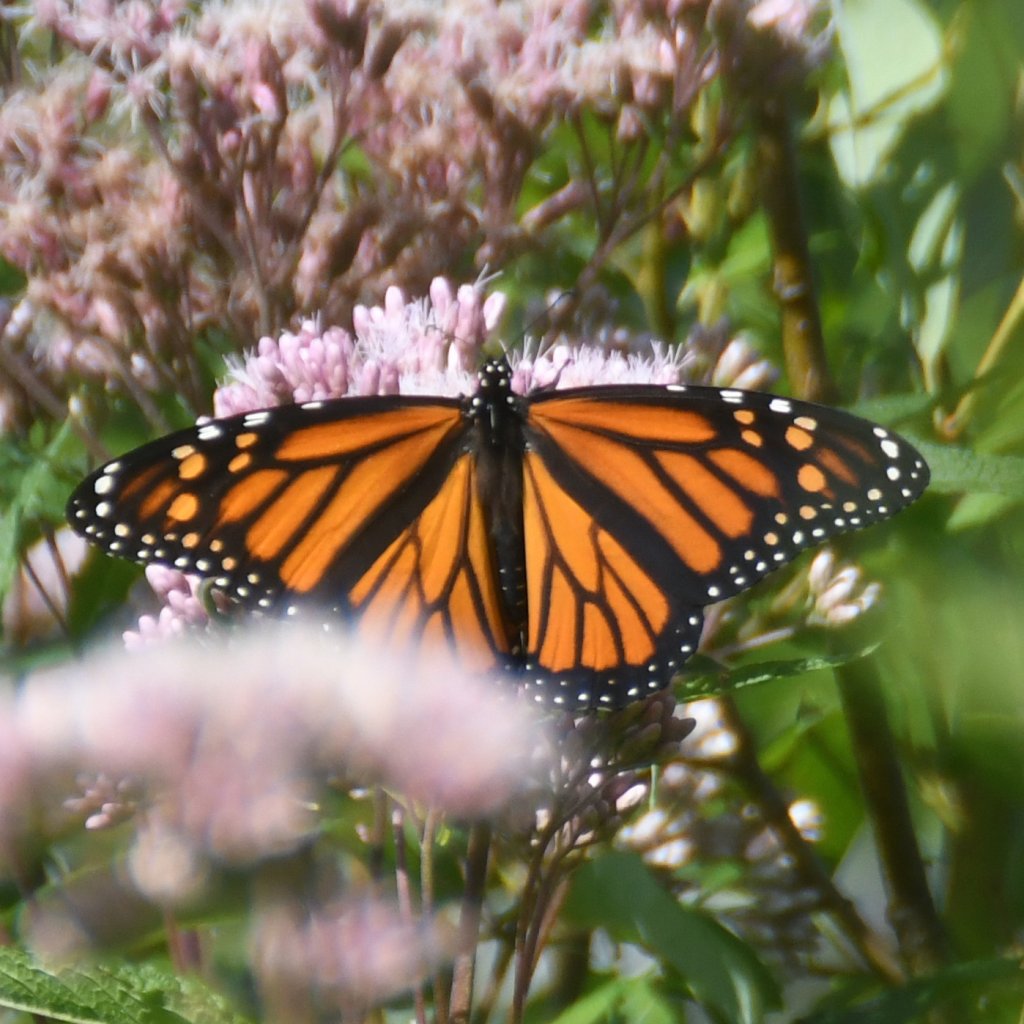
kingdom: Animalia
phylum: Arthropoda
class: Insecta
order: Lepidoptera
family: Nymphalidae
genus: Danaus
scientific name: Danaus plexippus
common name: Monarch
